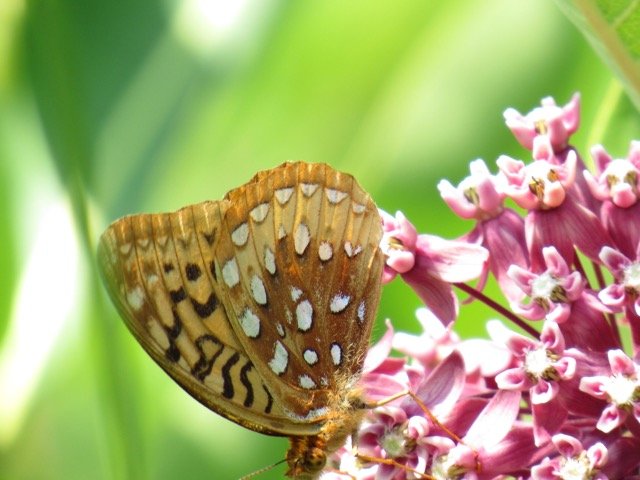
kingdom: Animalia
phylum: Arthropoda
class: Insecta
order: Lepidoptera
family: Nymphalidae
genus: Speyeria
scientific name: Speyeria cybele
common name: Great Spangled Fritillary
